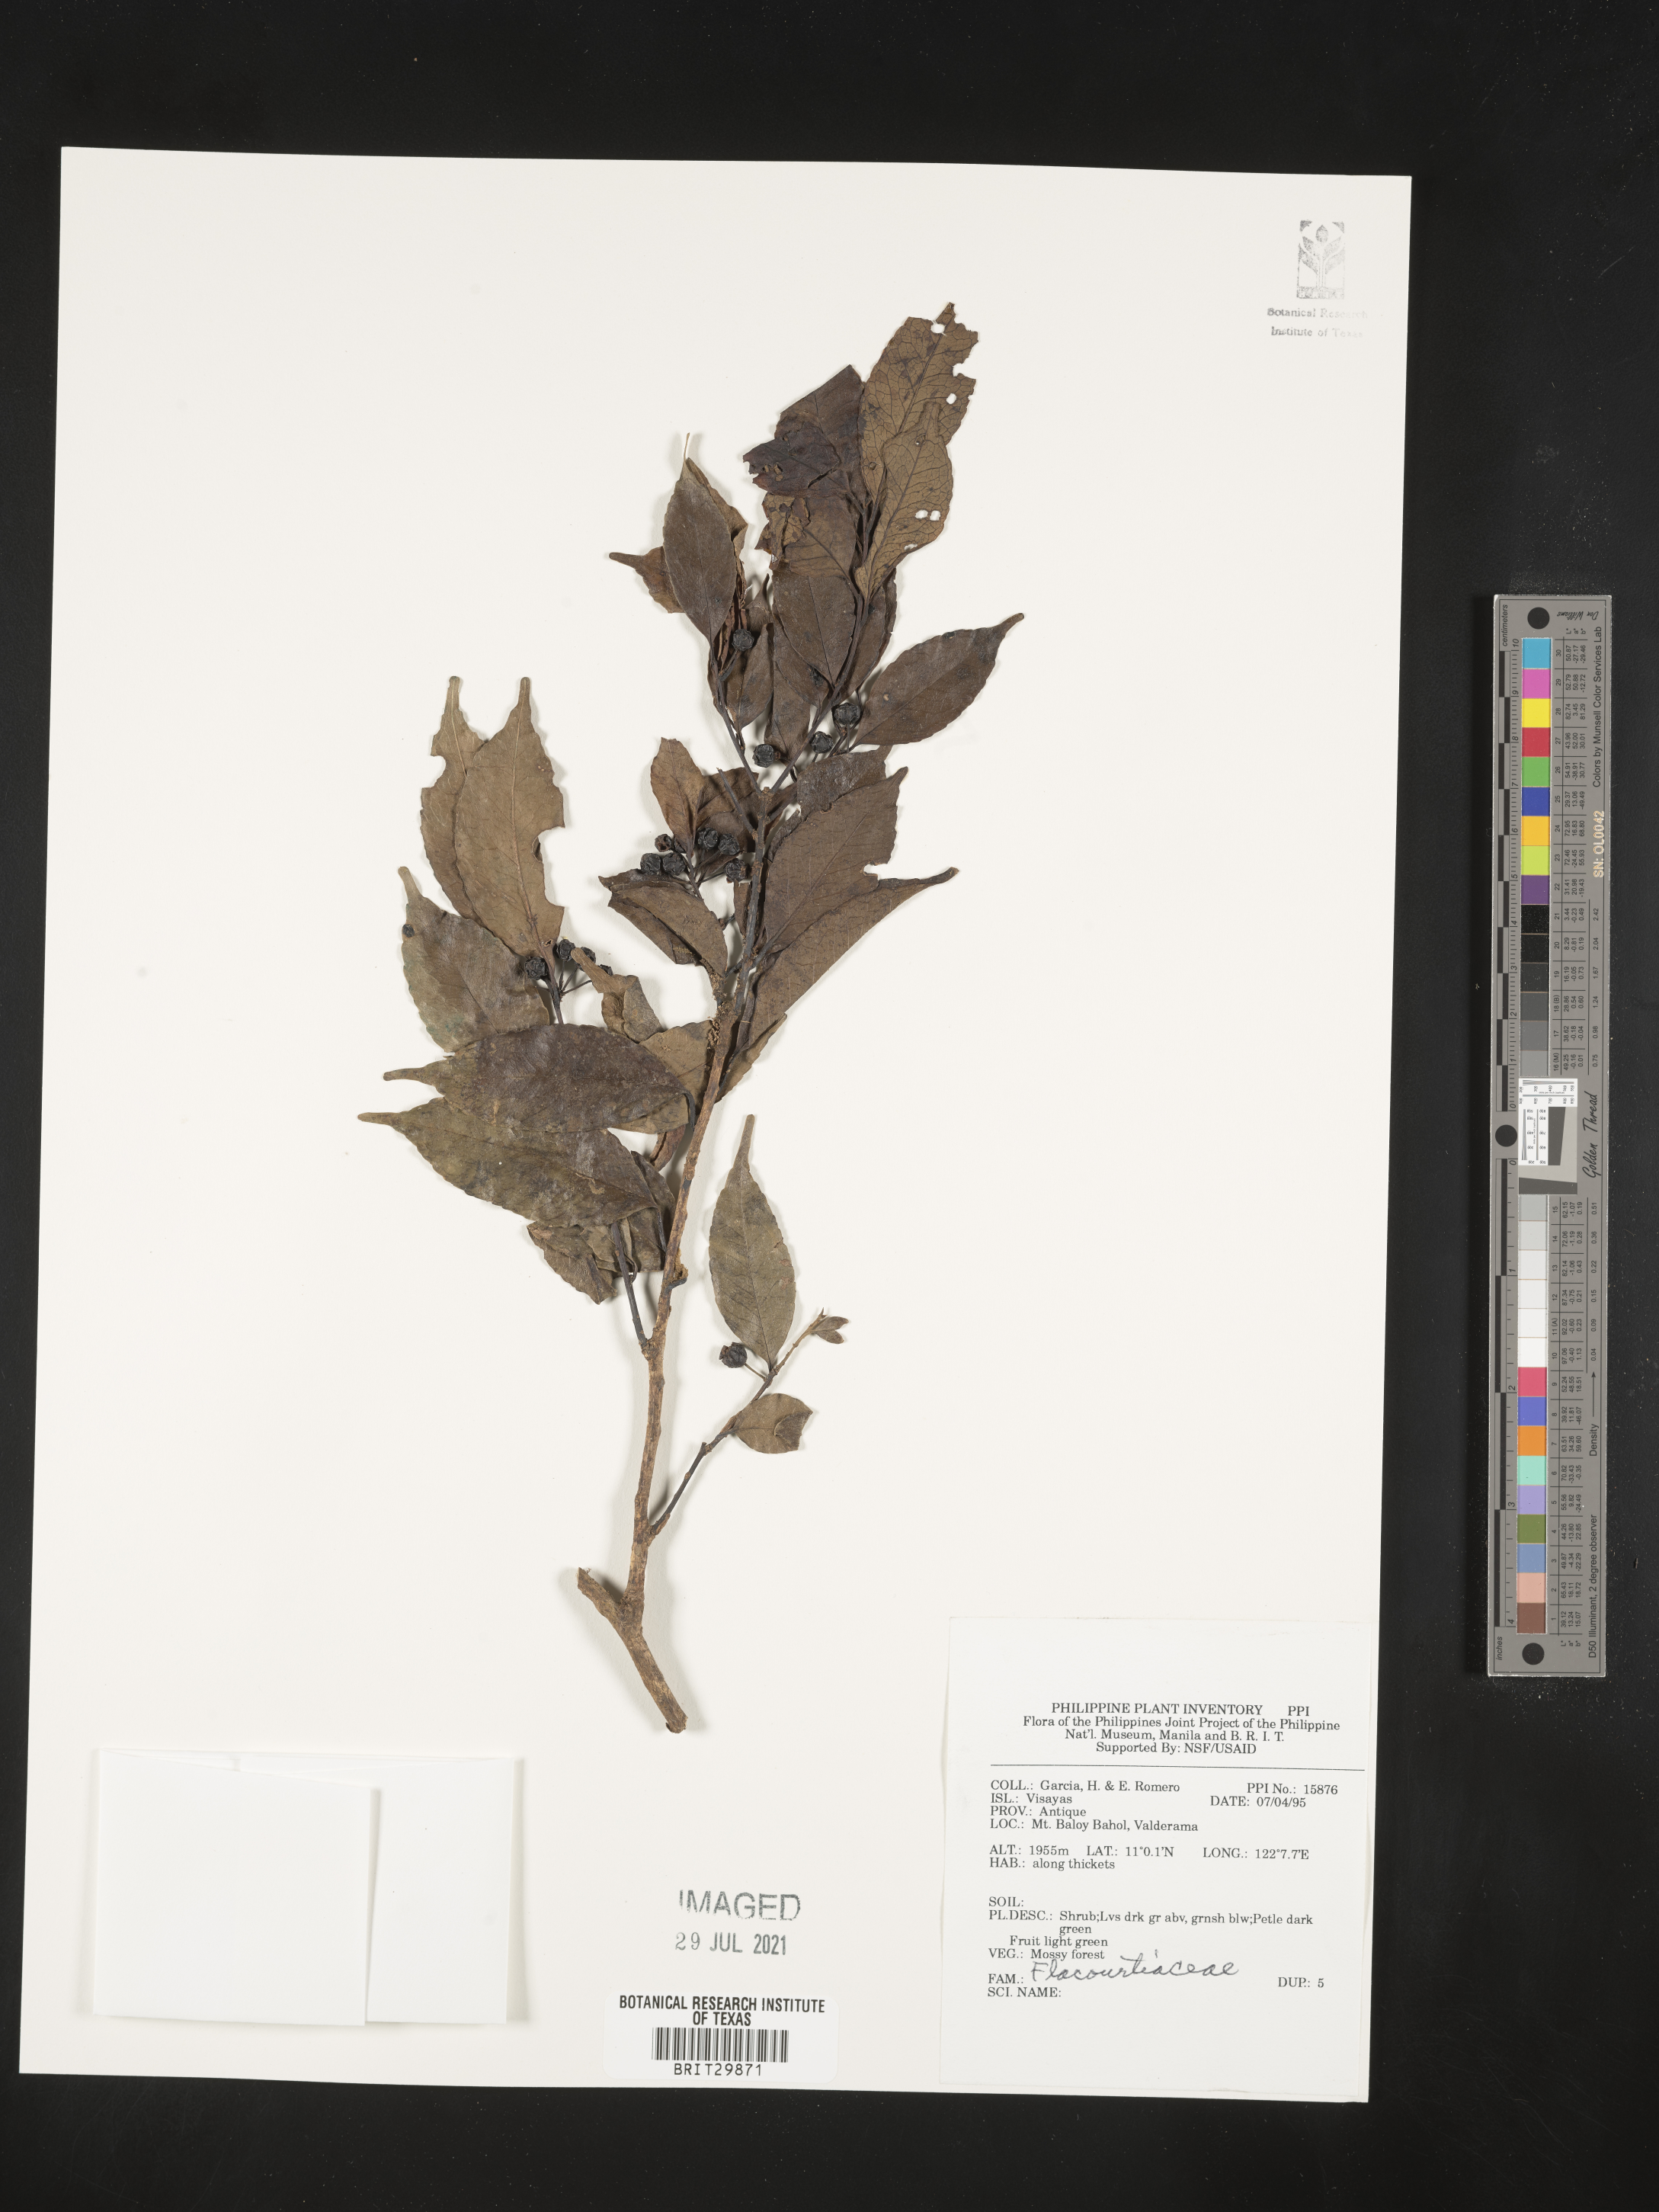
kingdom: Plantae
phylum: Tracheophyta
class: Magnoliopsida
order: Malpighiales
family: Flacourtiaceae
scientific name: Flacourtiaceae
